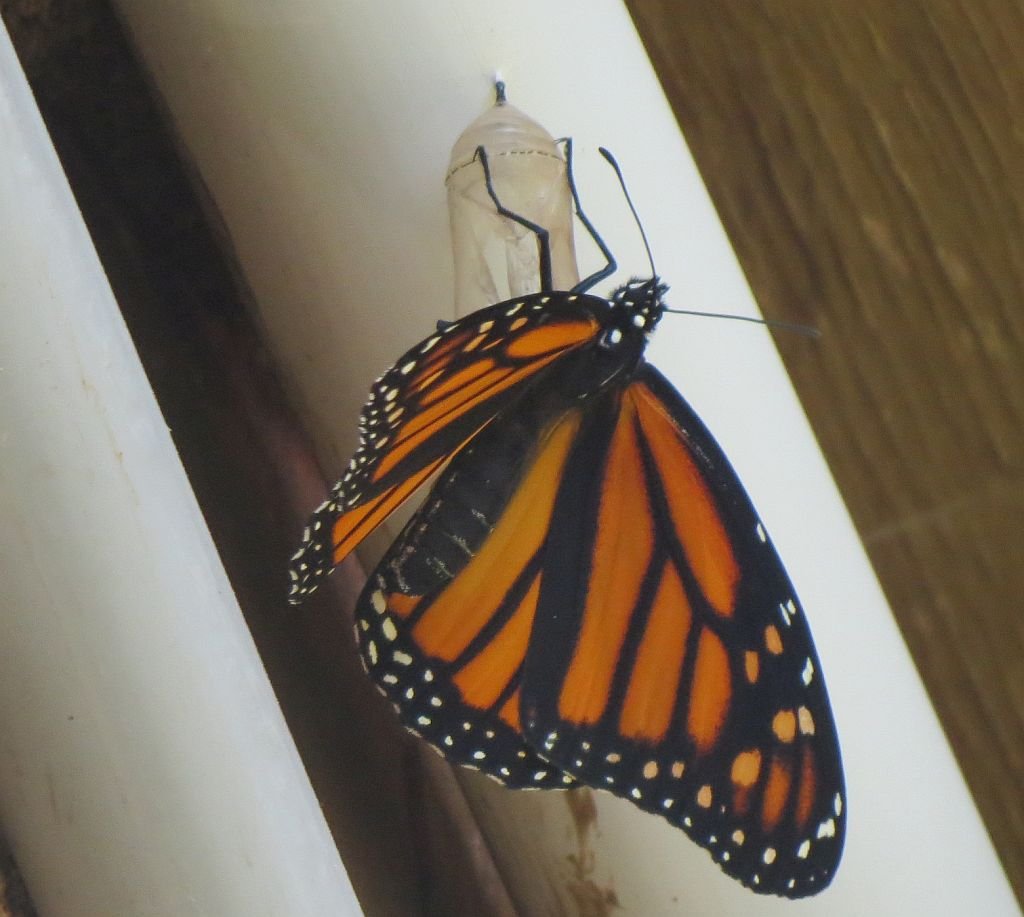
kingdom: Animalia
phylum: Arthropoda
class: Insecta
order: Lepidoptera
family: Nymphalidae
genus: Danaus
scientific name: Danaus plexippus
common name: Monarch
